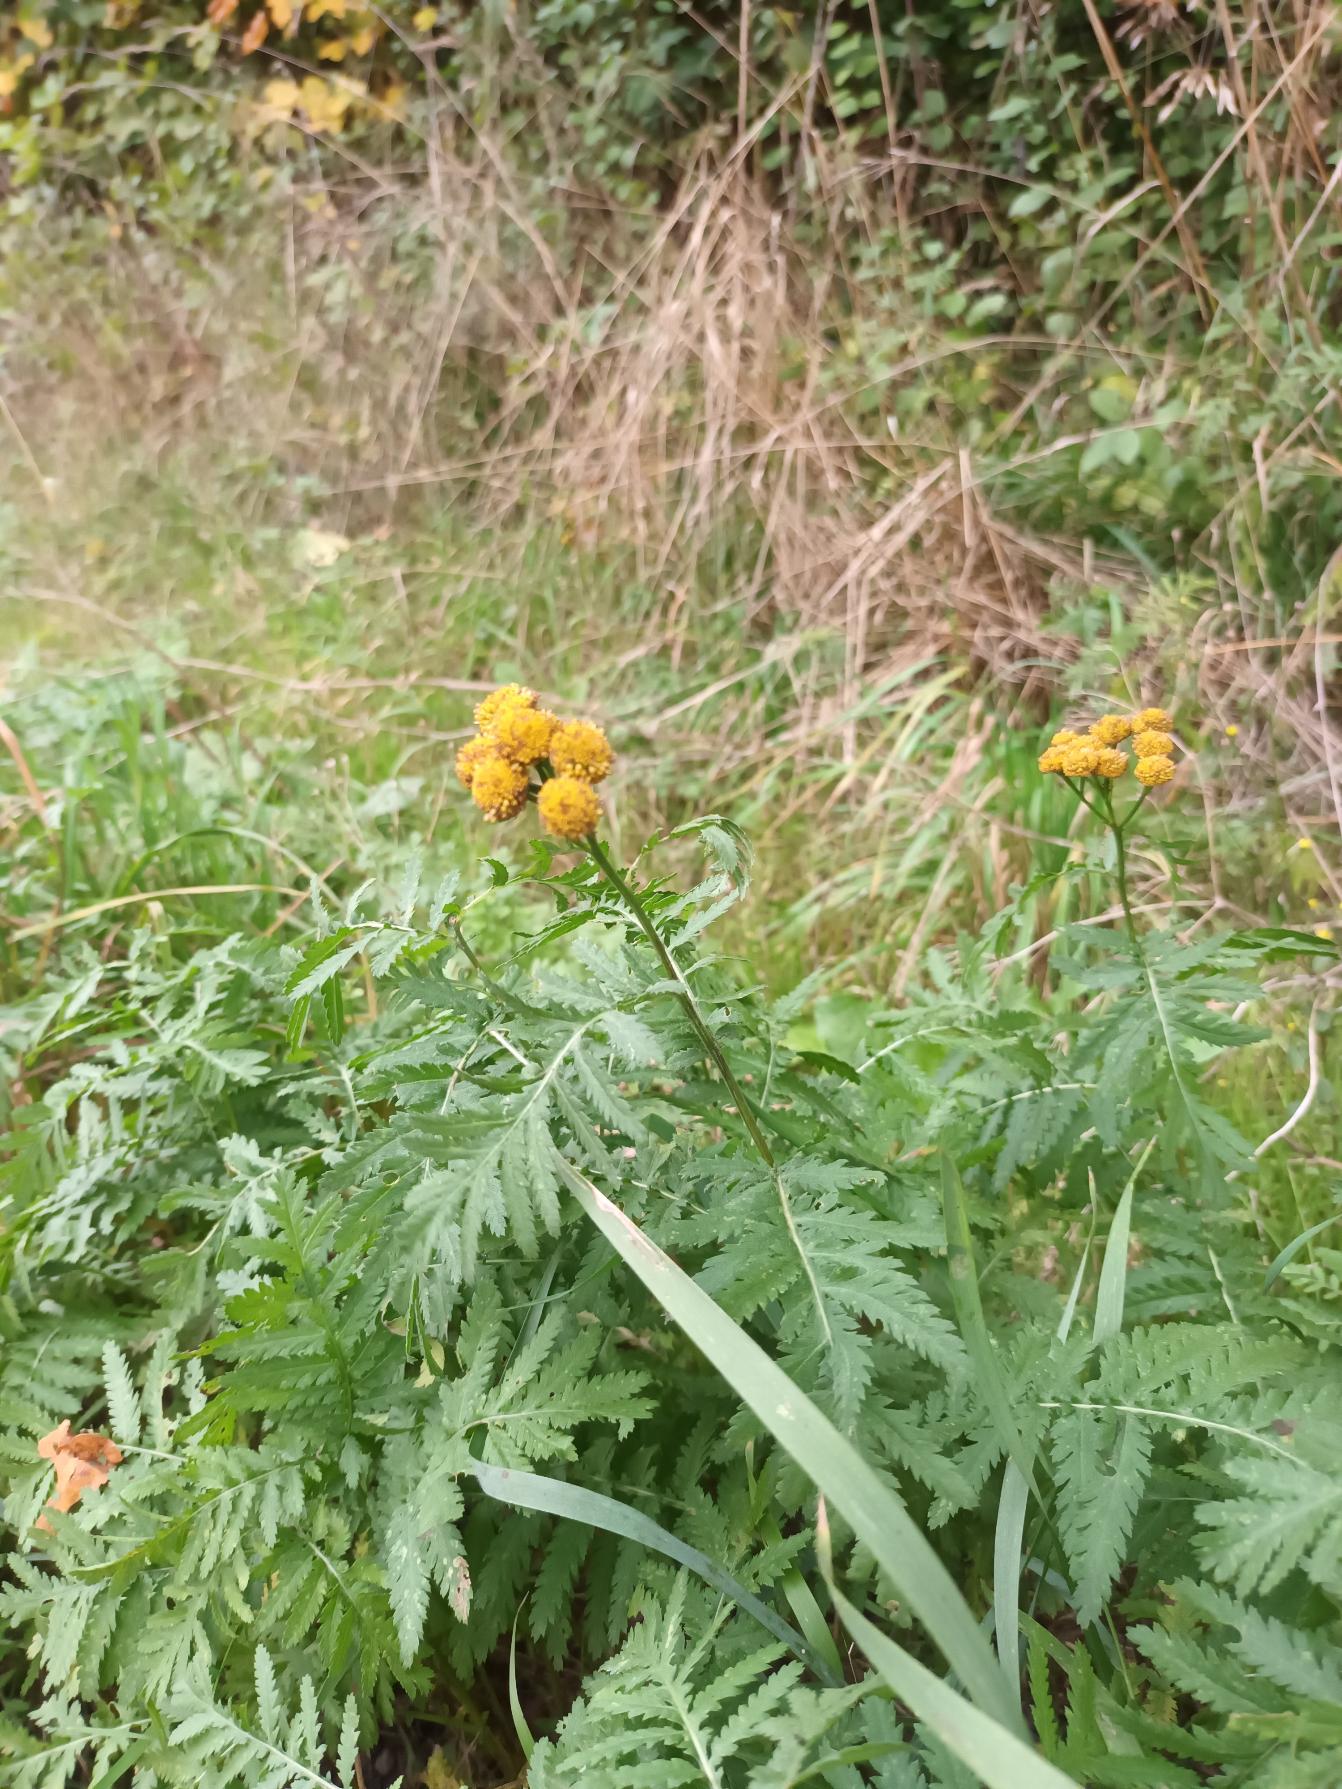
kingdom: Plantae
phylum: Tracheophyta
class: Magnoliopsida
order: Asterales
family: Asteraceae
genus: Tanacetum
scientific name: Tanacetum vulgare
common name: Rejnfan
